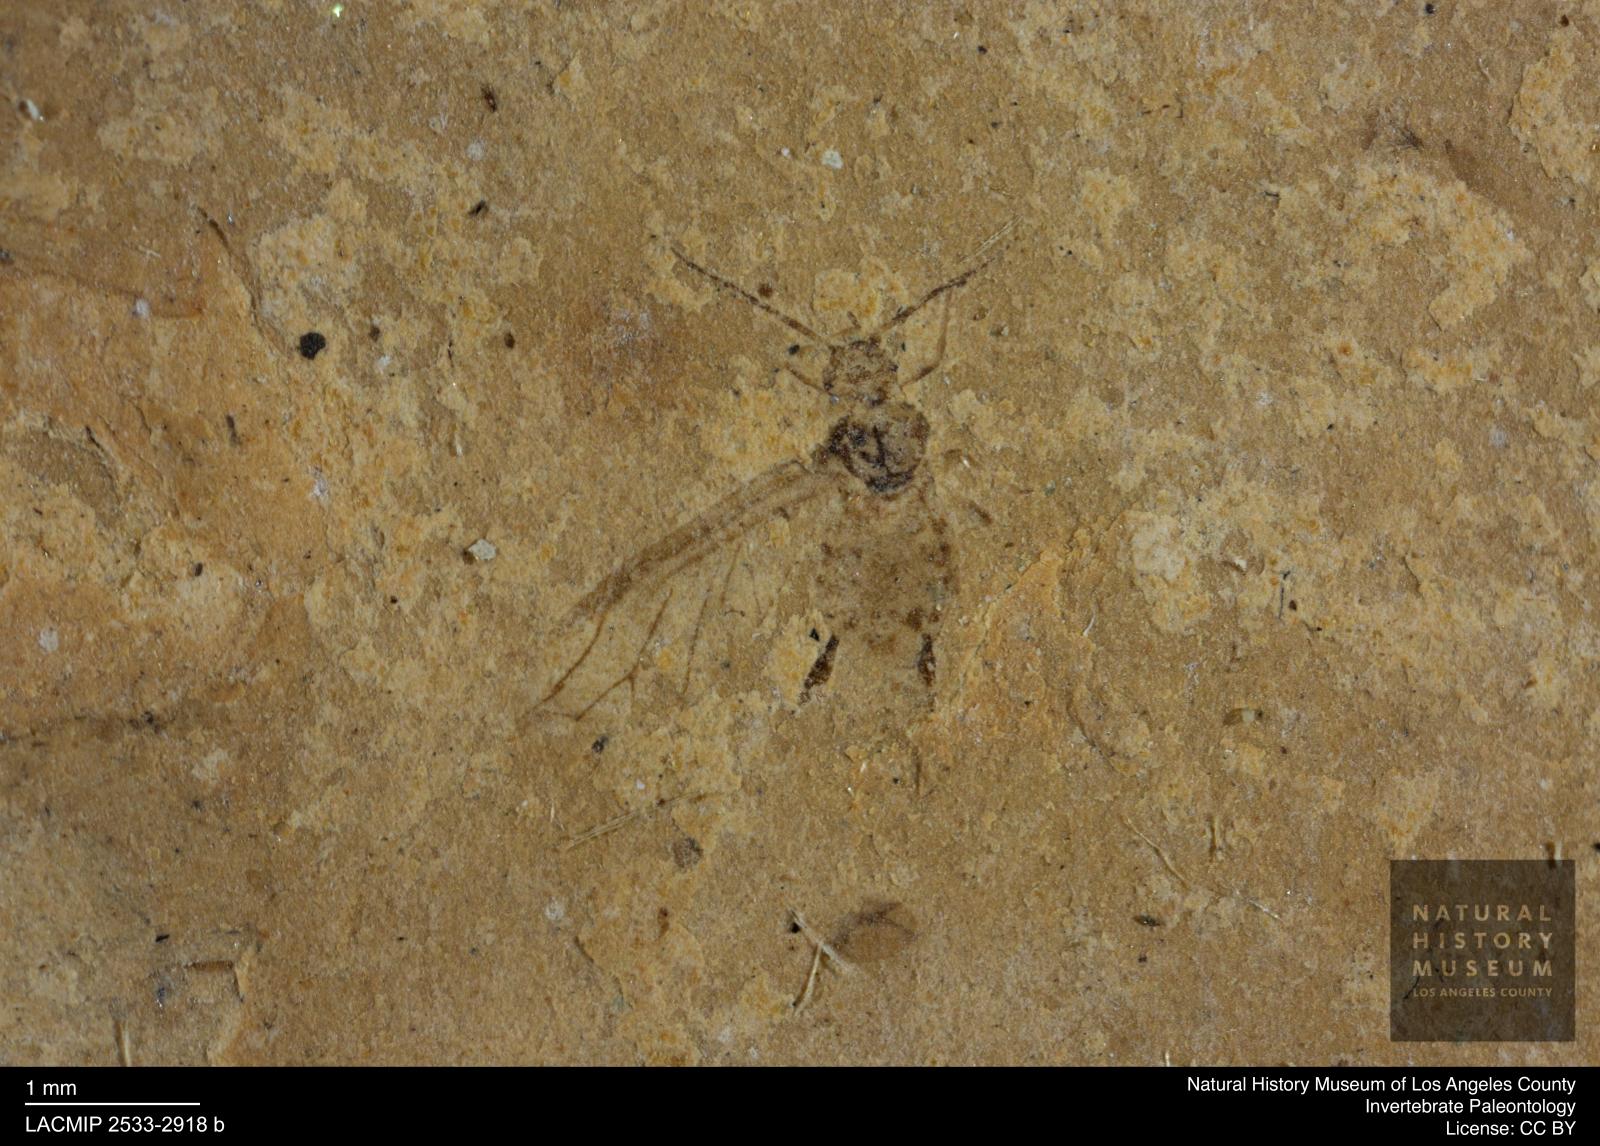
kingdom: Animalia
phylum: Arthropoda
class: Insecta
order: Hemiptera
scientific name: Hemiptera
